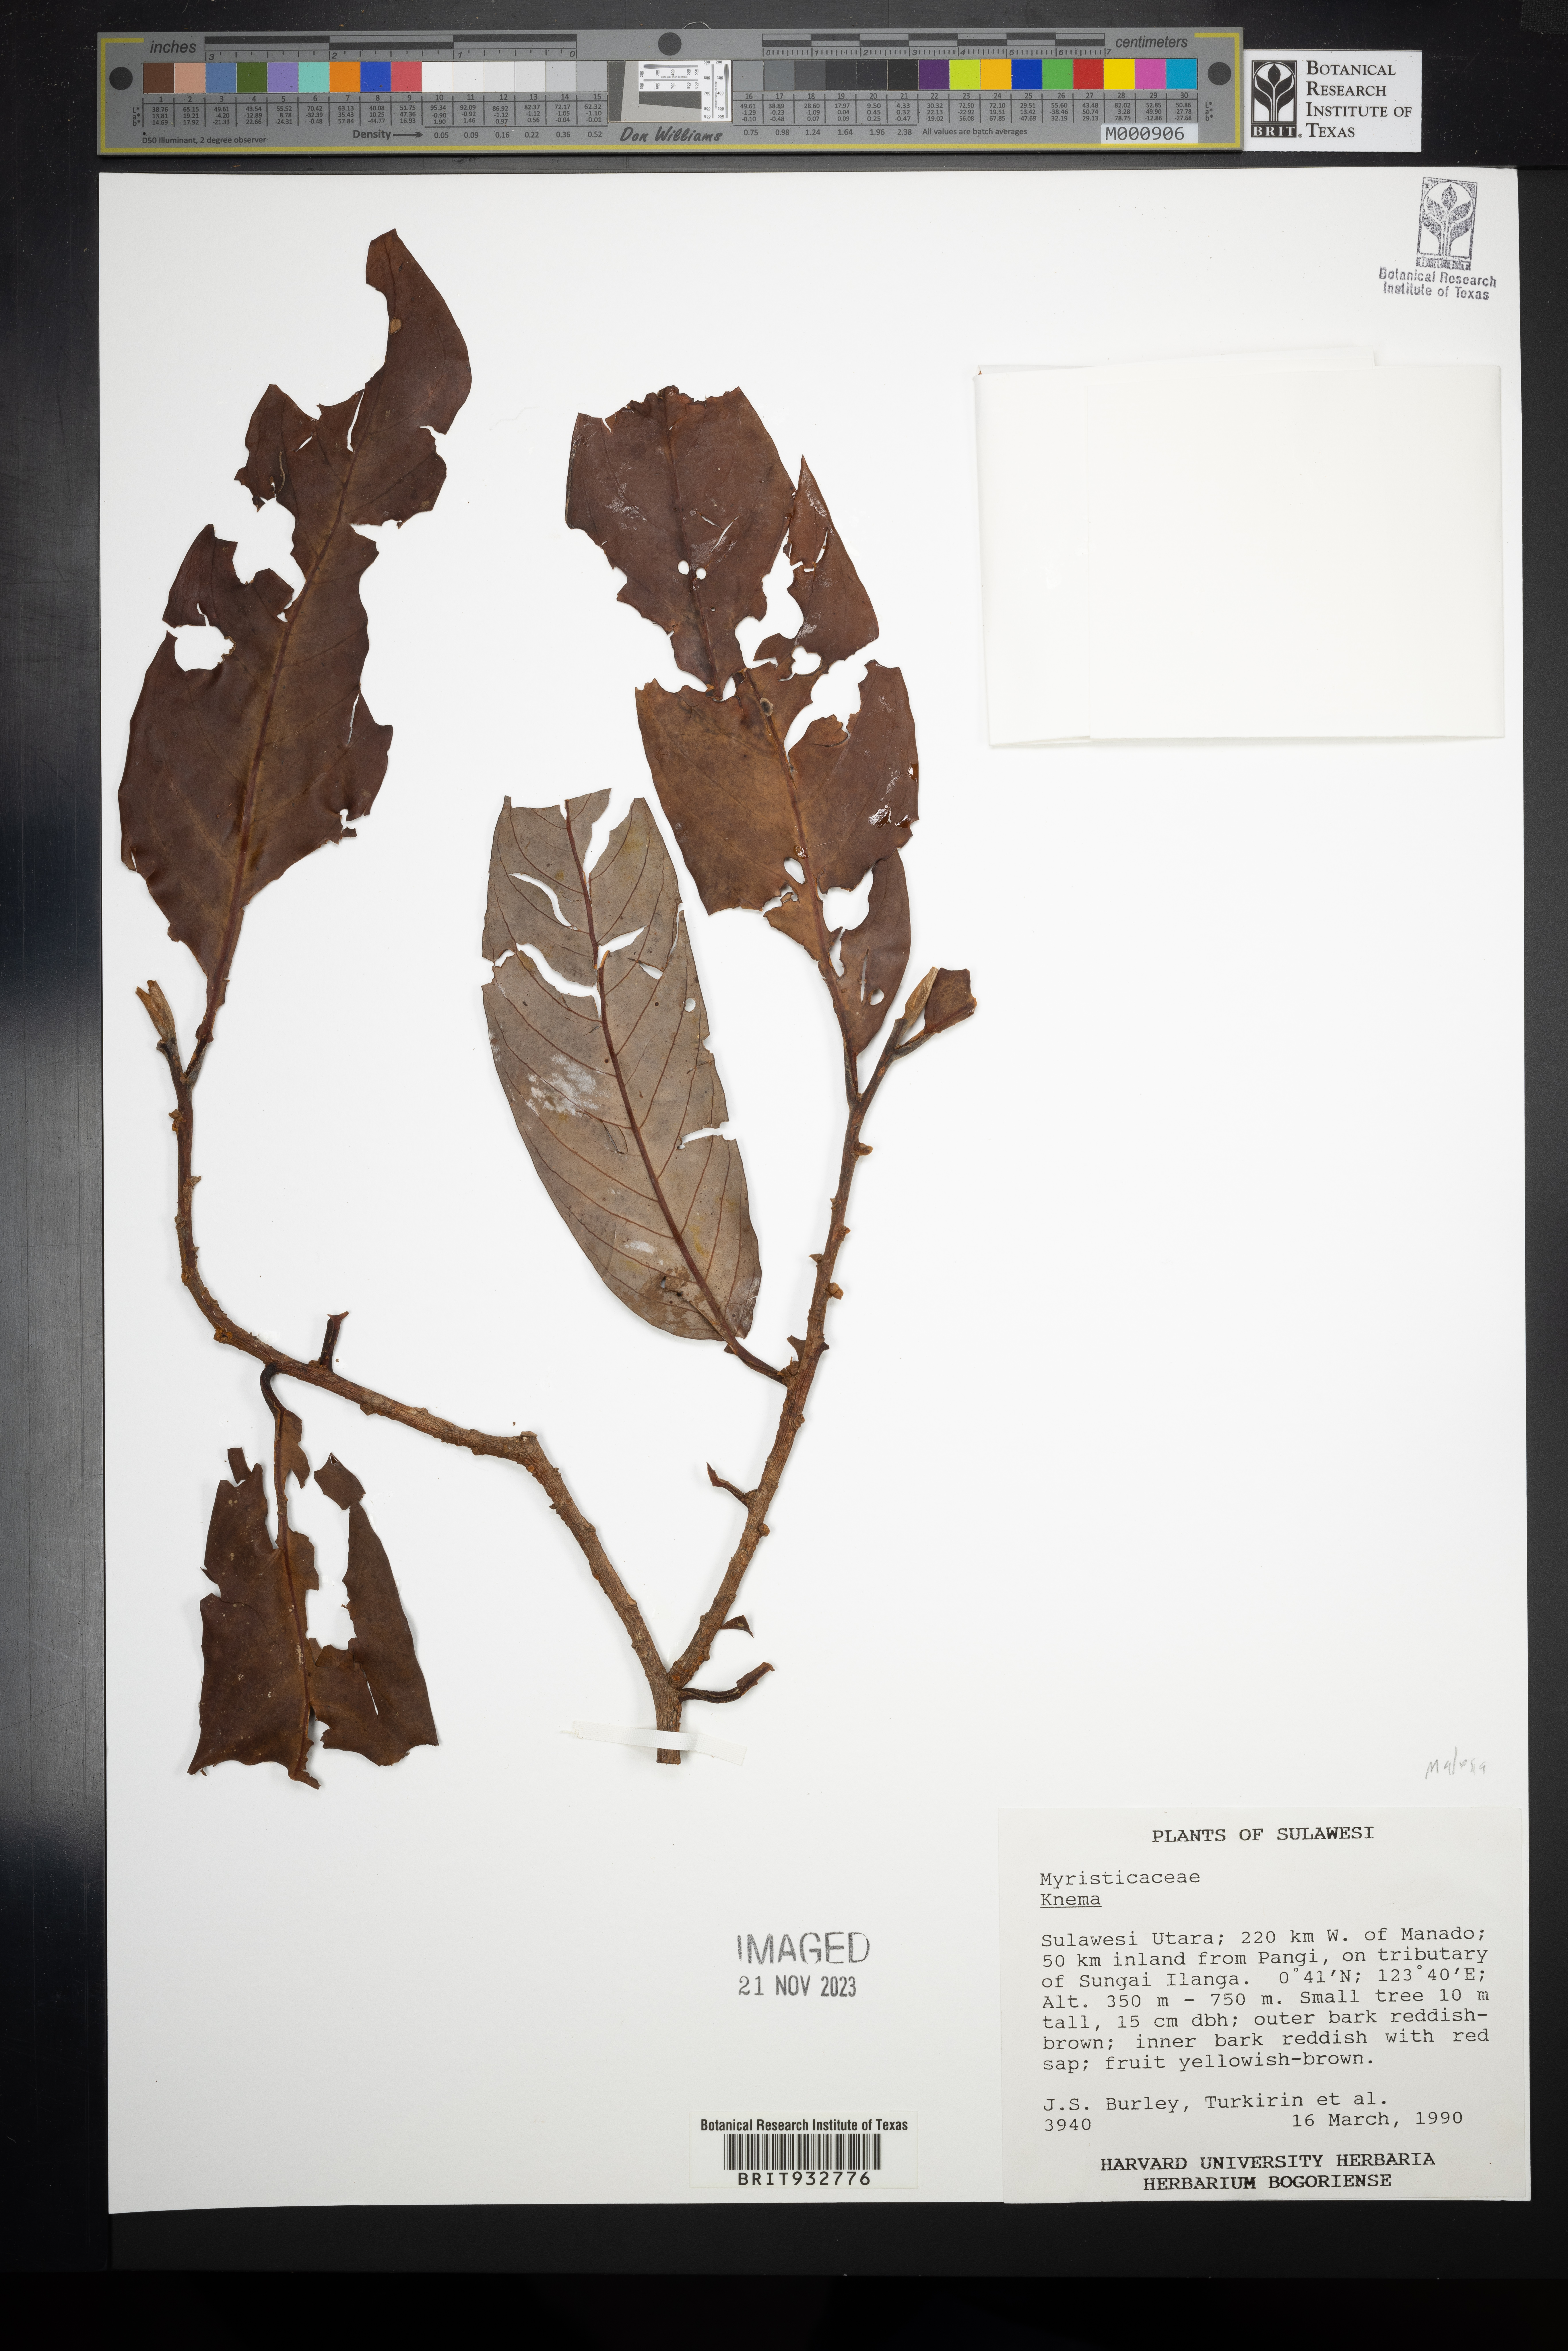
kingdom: Plantae
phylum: Tracheophyta
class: Magnoliopsida
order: Magnoliales
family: Myristicaceae
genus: Knema
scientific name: Knema
